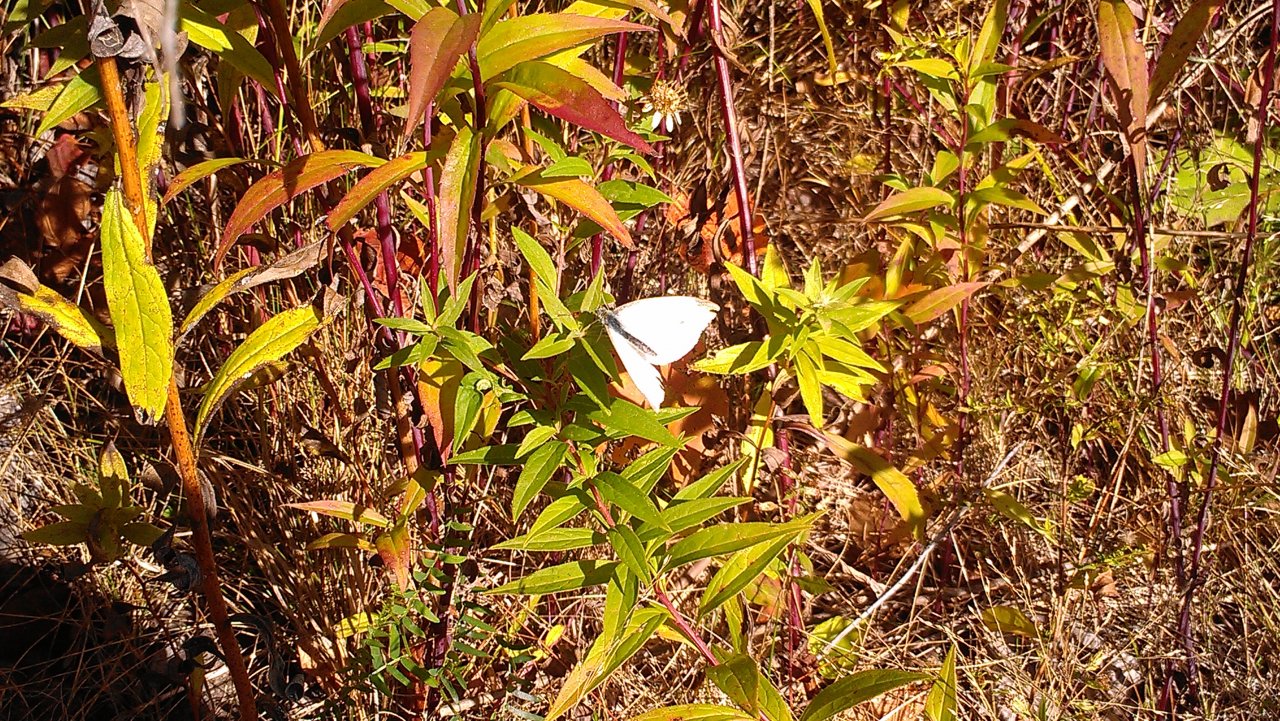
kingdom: Animalia
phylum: Arthropoda
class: Insecta
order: Lepidoptera
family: Pieridae
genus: Pieris
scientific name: Pieris rapae
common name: Cabbage White
